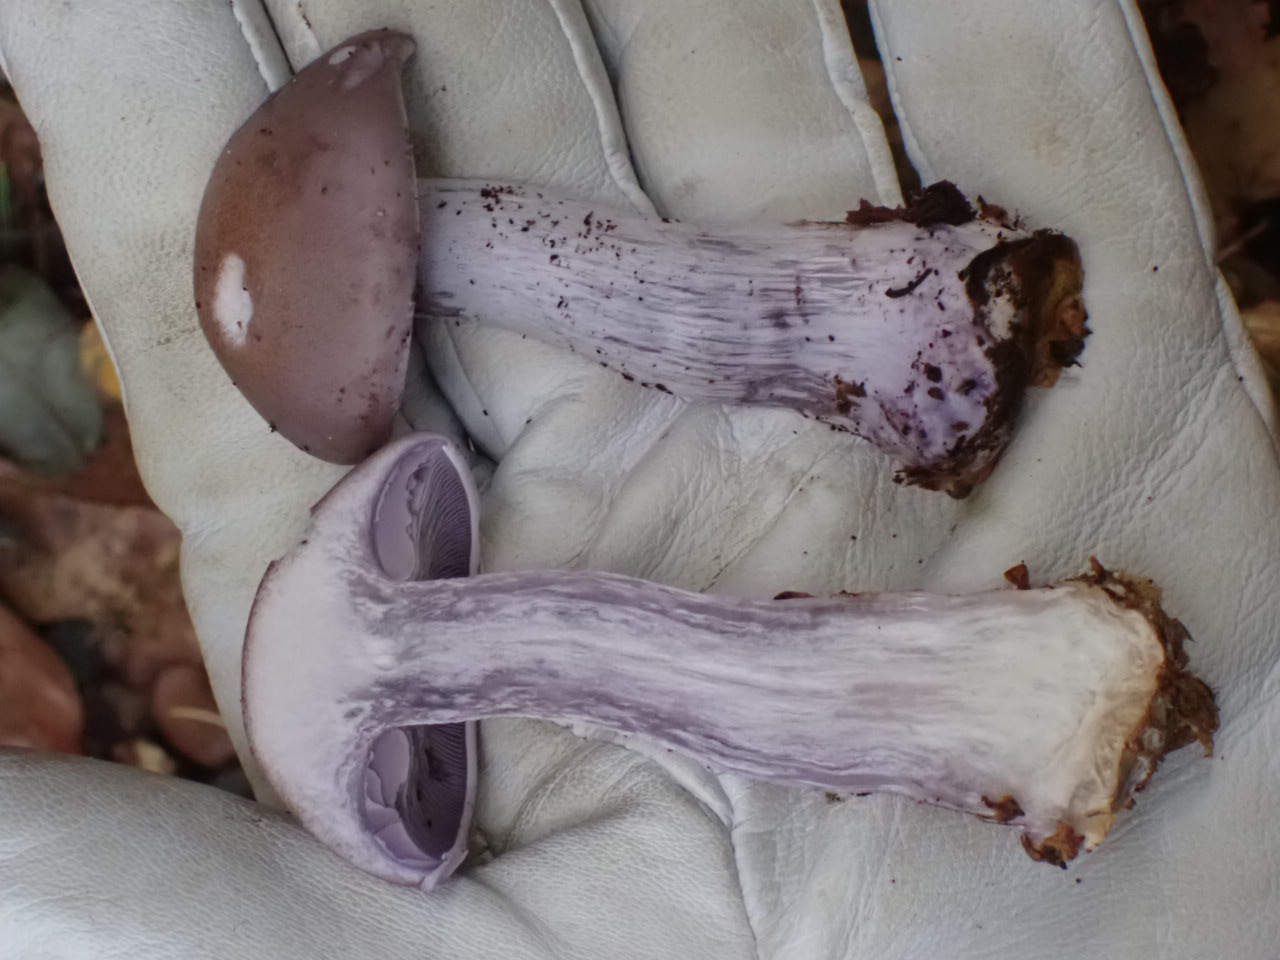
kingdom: Fungi
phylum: Basidiomycota
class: Agaricomycetes
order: Agaricales
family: Tricholomataceae
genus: Lepista
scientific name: Lepista nuda
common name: violet hekseringshat
